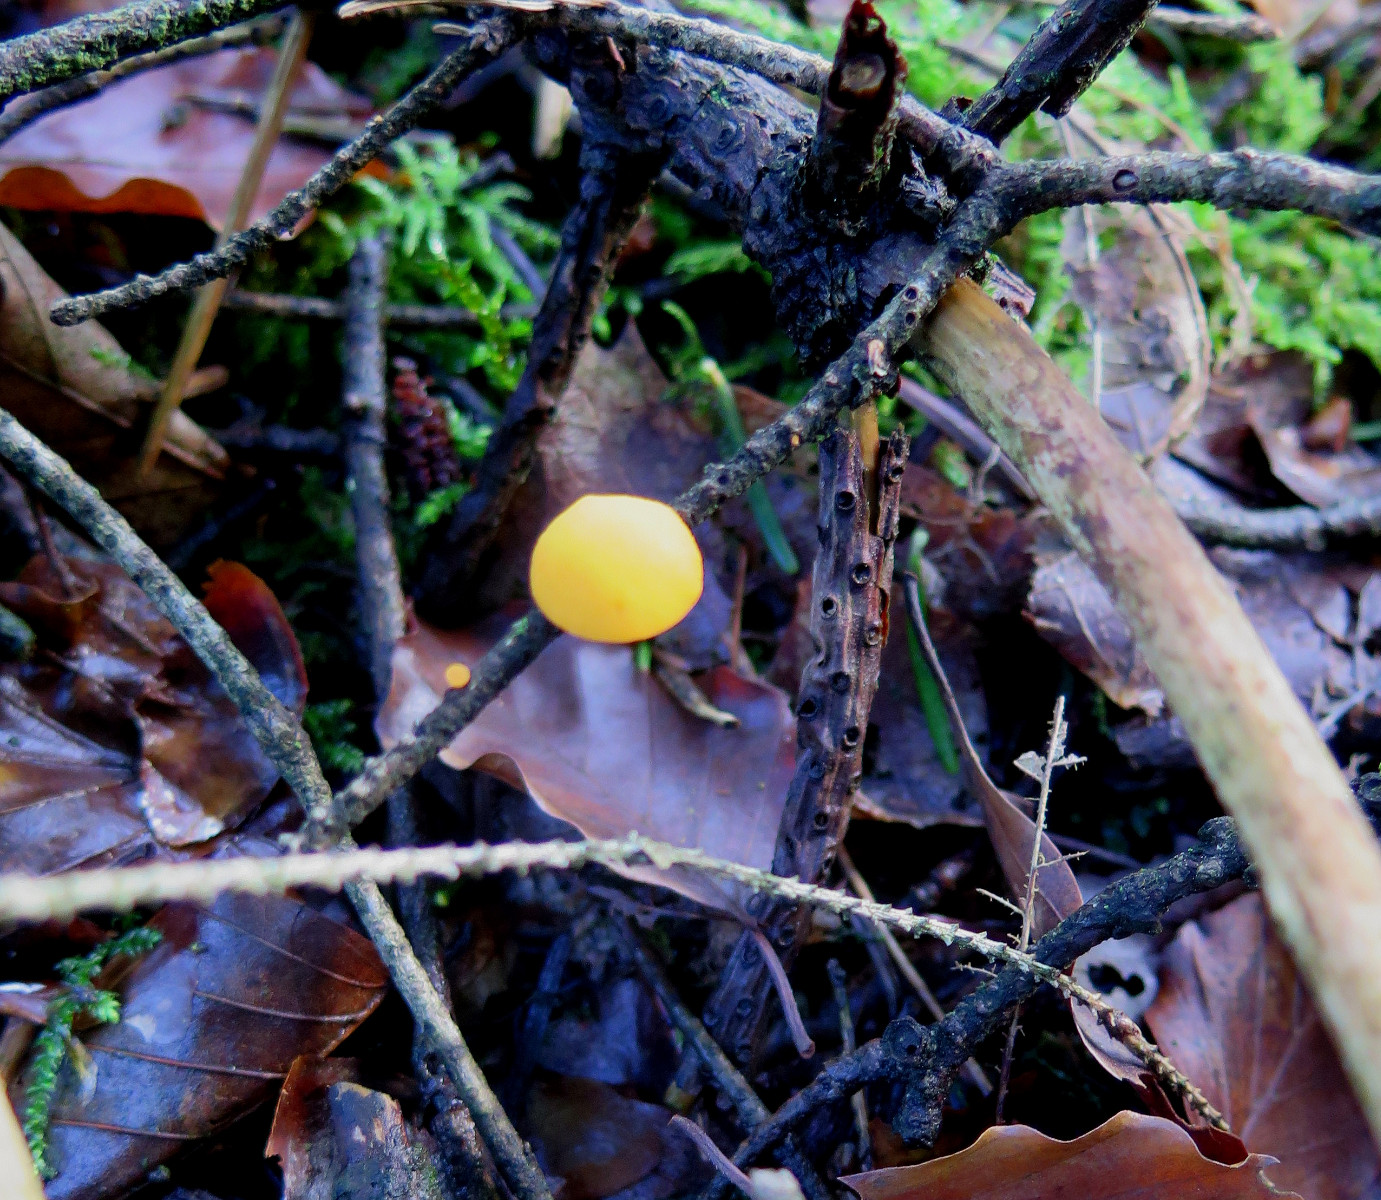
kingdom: Fungi
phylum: Ascomycota
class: Pezizomycetes
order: Pezizales
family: Sarcoscyphaceae
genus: Pithya
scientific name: Pithya vulgaris
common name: stor dukatbæger
